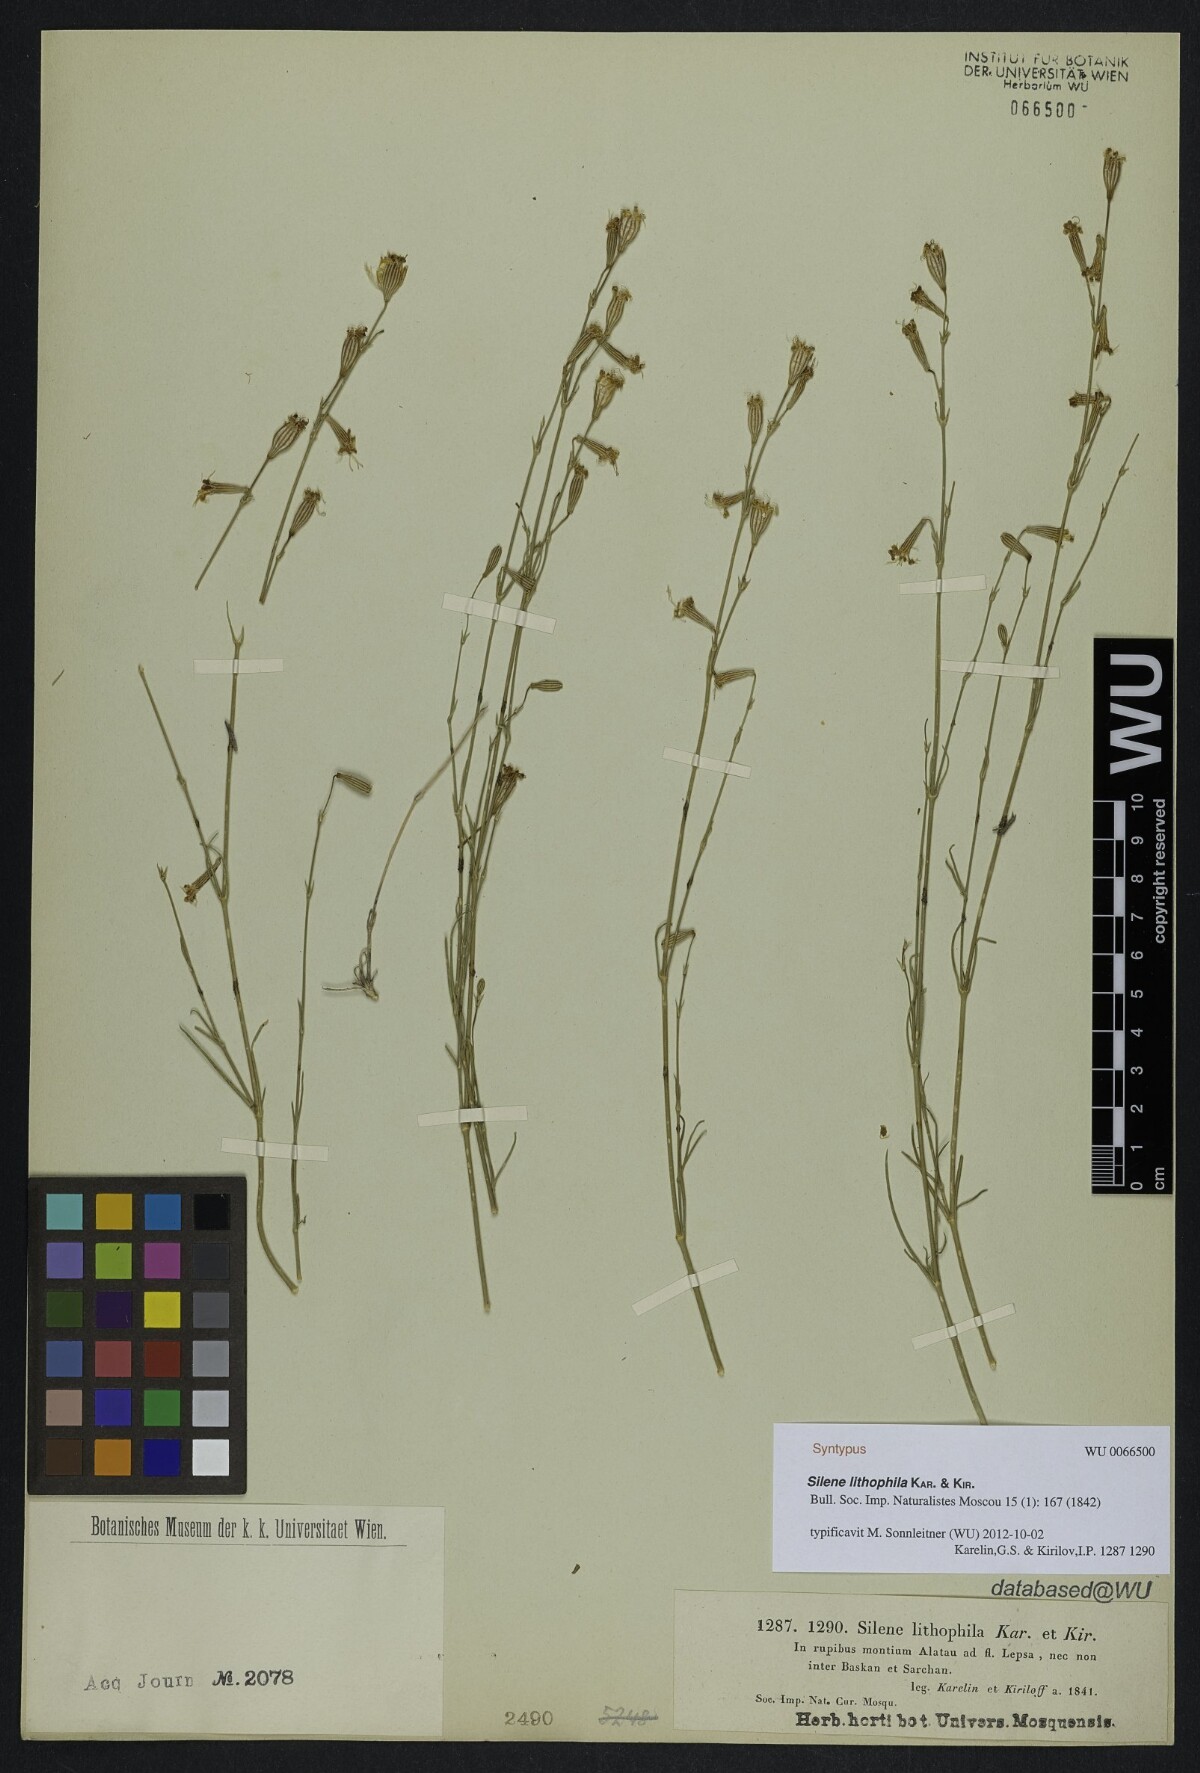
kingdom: Plantae
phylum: Tracheophyta
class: Magnoliopsida
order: Caryophyllales
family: Caryophyllaceae
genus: Silene
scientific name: Silene lithophila
